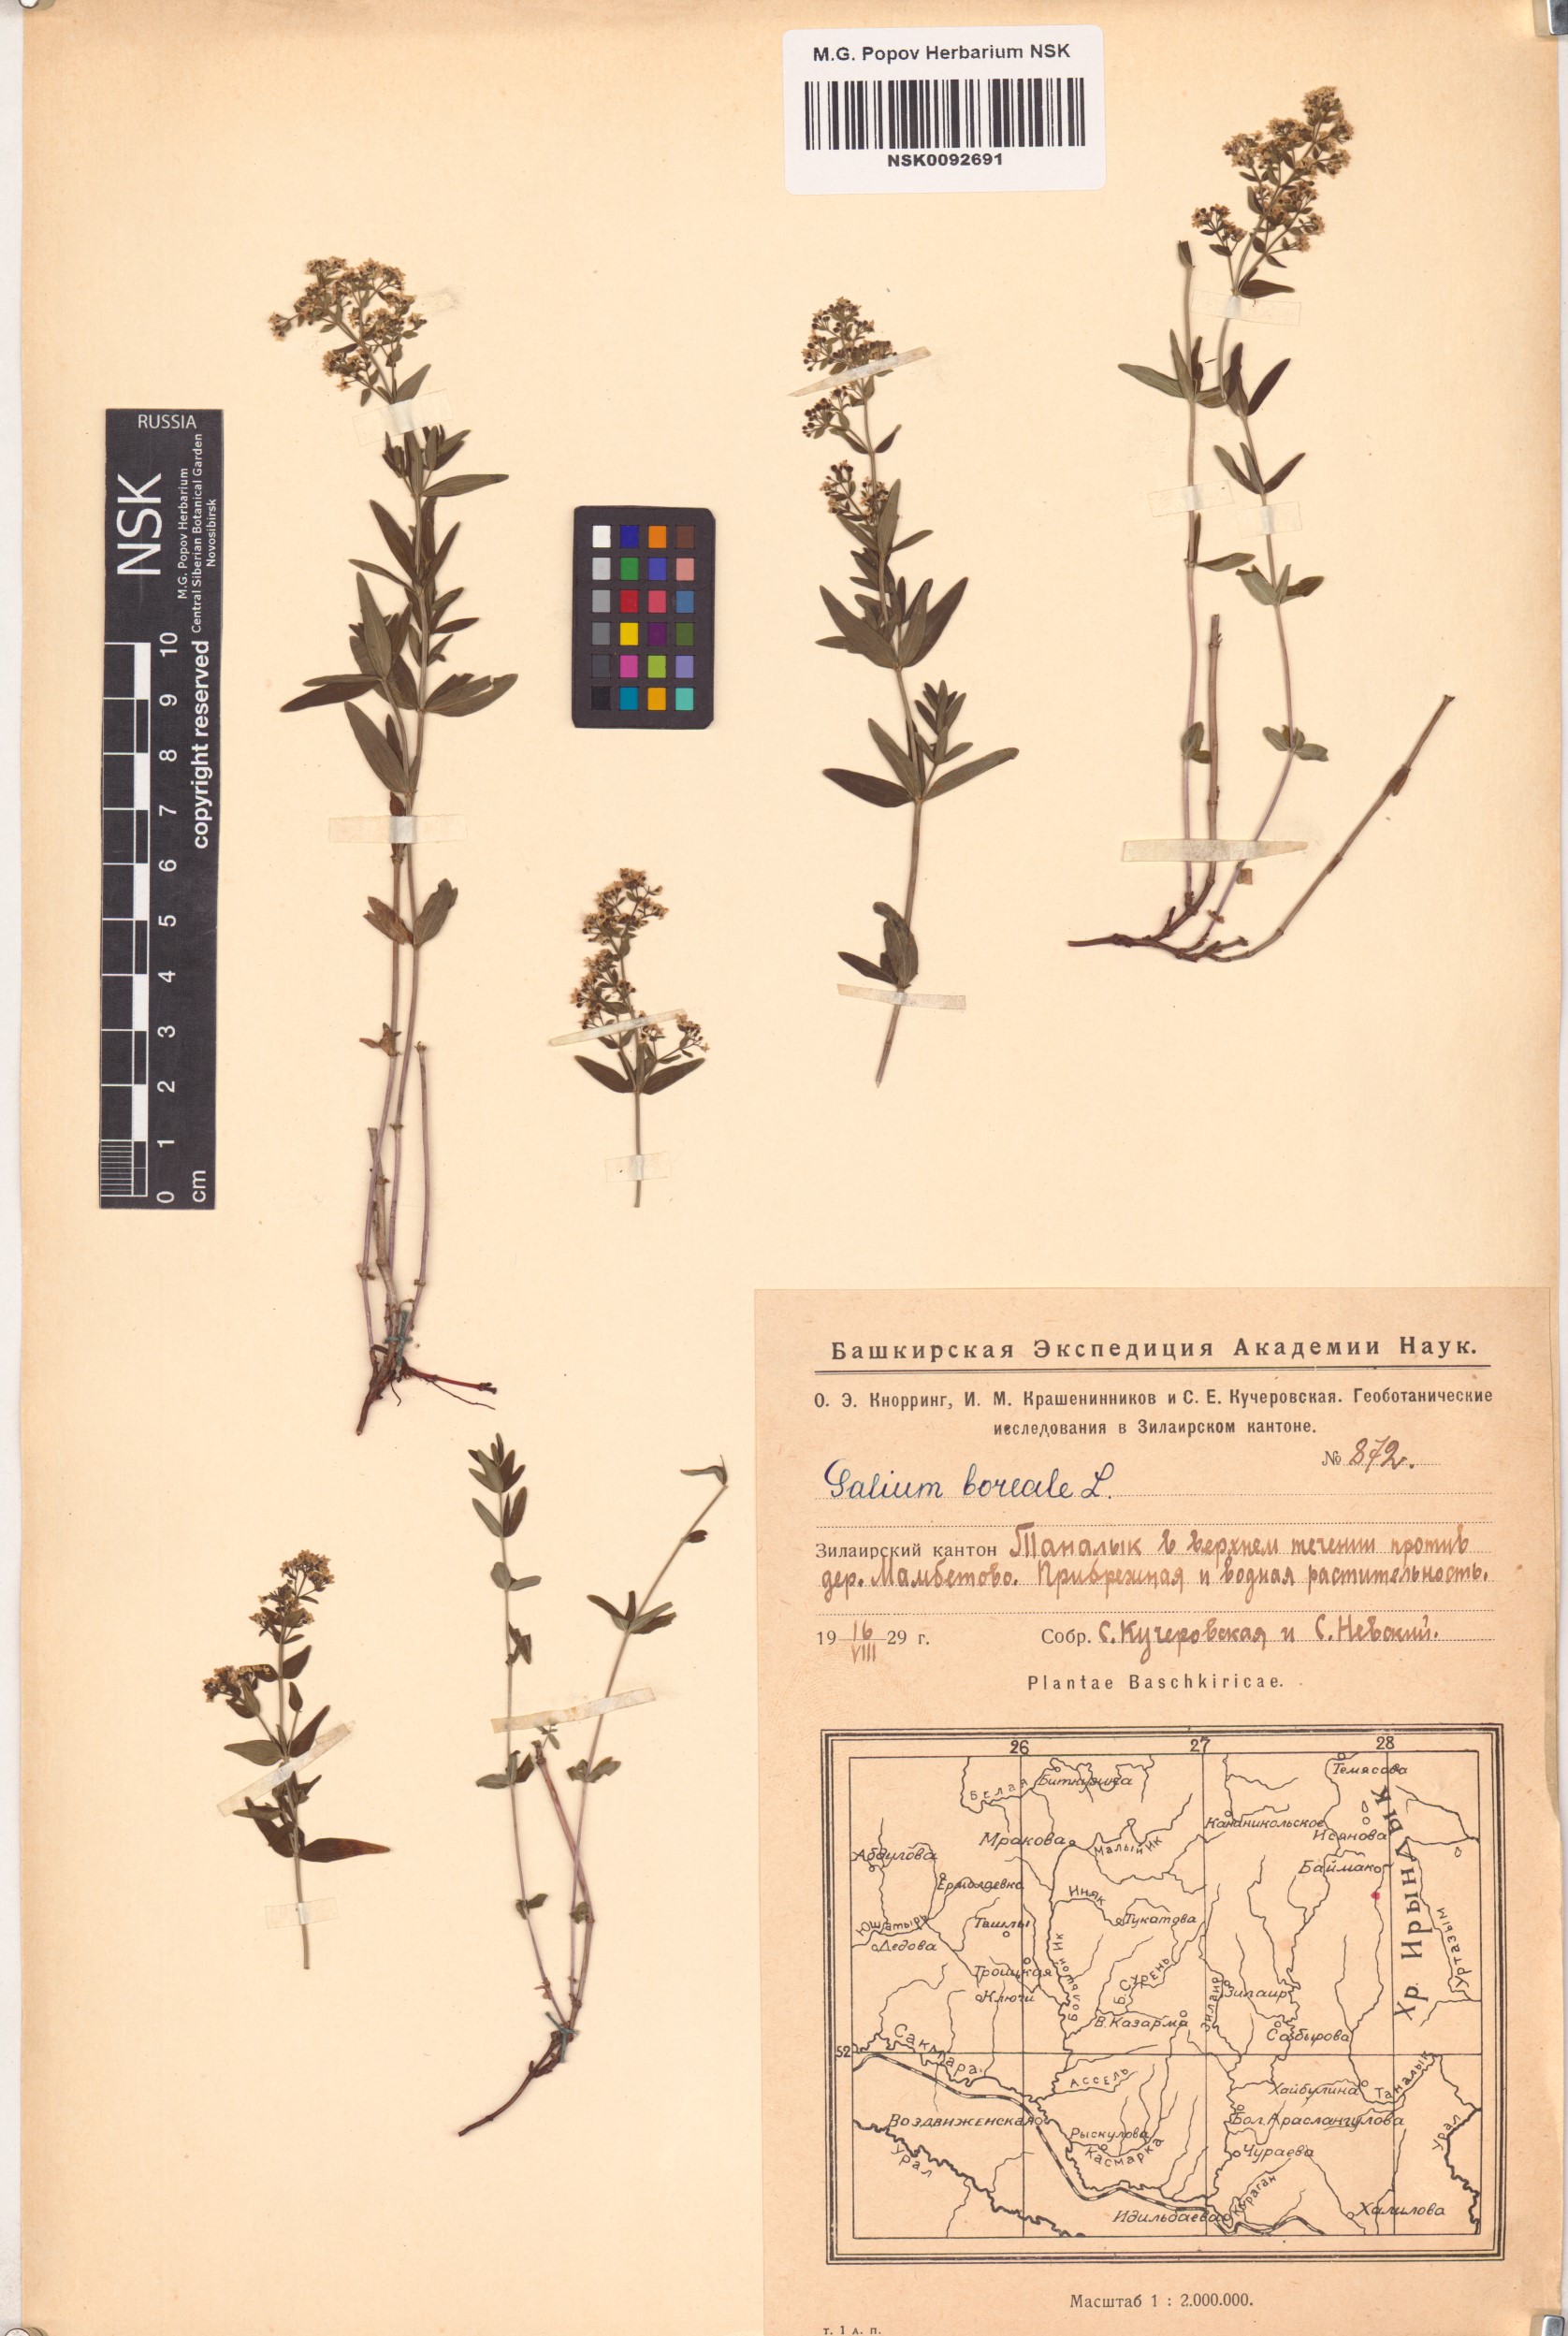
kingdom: Plantae
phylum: Tracheophyta
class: Magnoliopsida
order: Gentianales
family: Rubiaceae
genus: Galium
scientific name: Galium boreale
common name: Northern bedstraw
